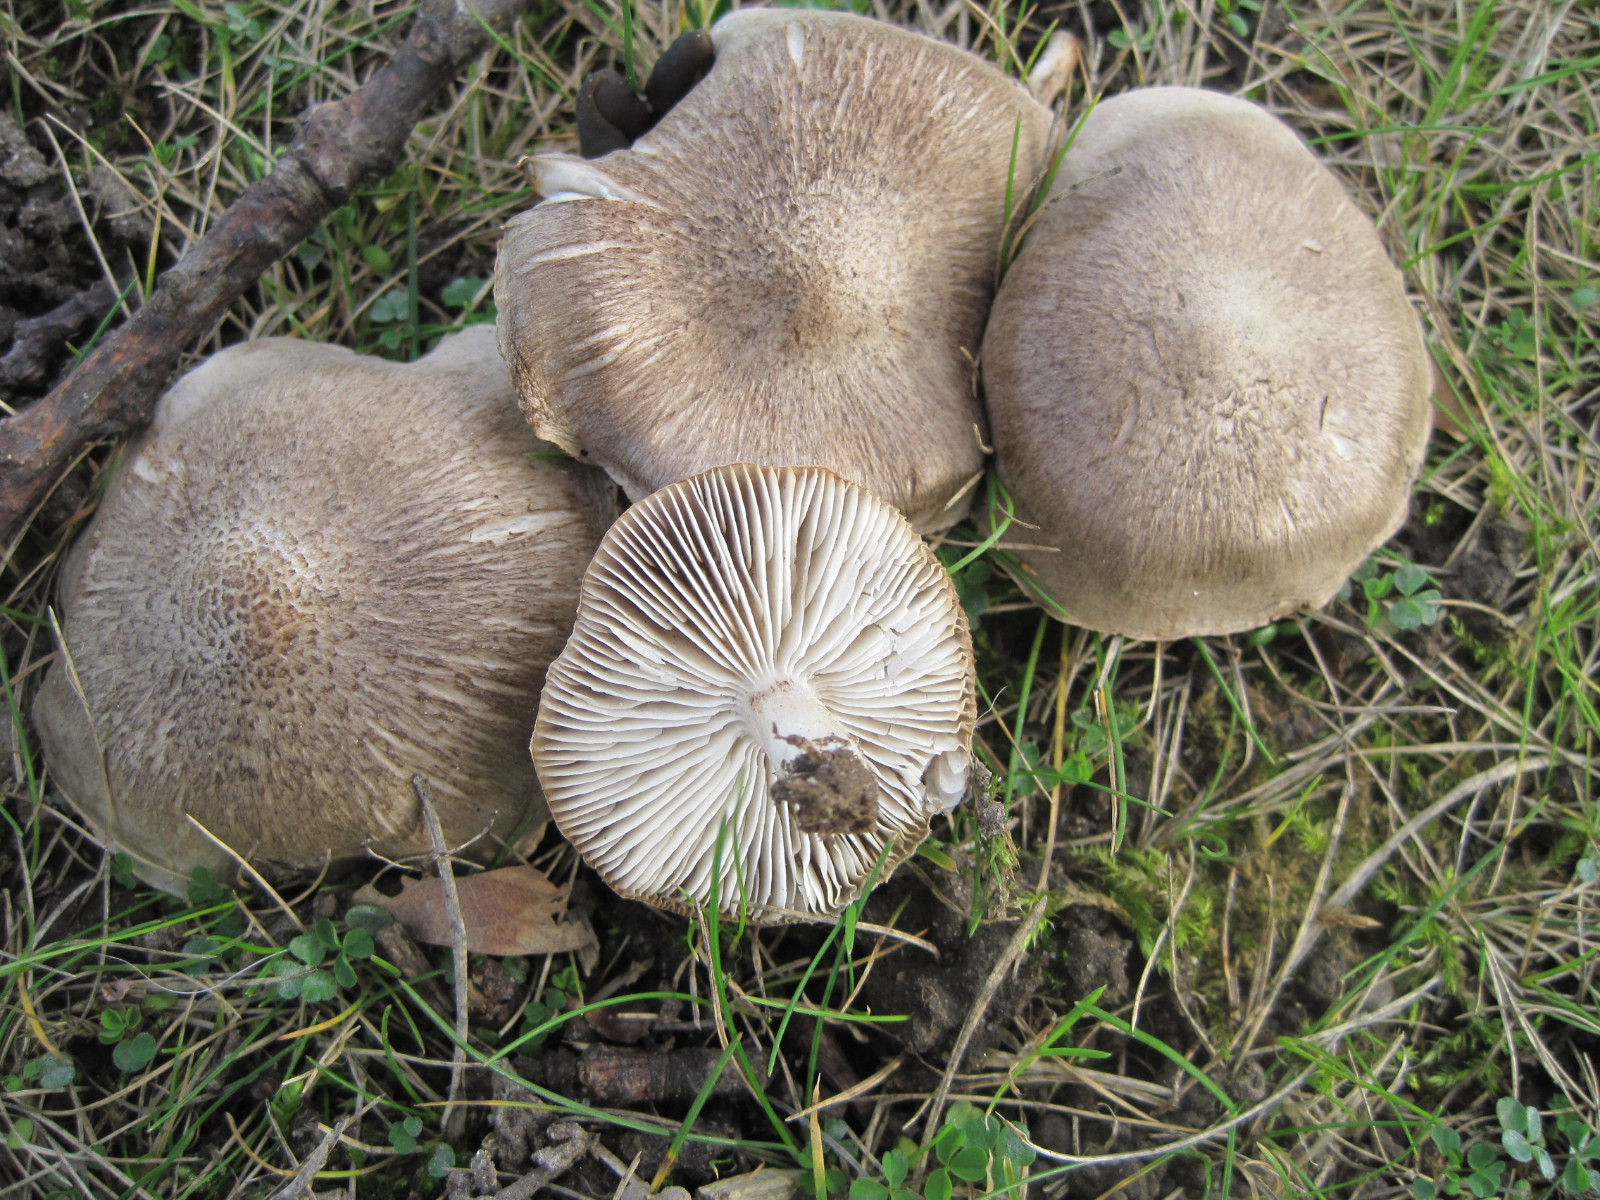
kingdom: Fungi
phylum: Basidiomycota
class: Agaricomycetes
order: Agaricales
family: Tricholomataceae
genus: Tricholoma
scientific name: Tricholoma scalpturatum
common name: gulplettet ridderhat
